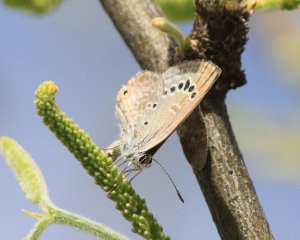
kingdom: Animalia
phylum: Arthropoda
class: Insecta
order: Lepidoptera
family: Lycaenidae
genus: Echinargus
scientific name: Echinargus isola
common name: Reakirt's Blue
